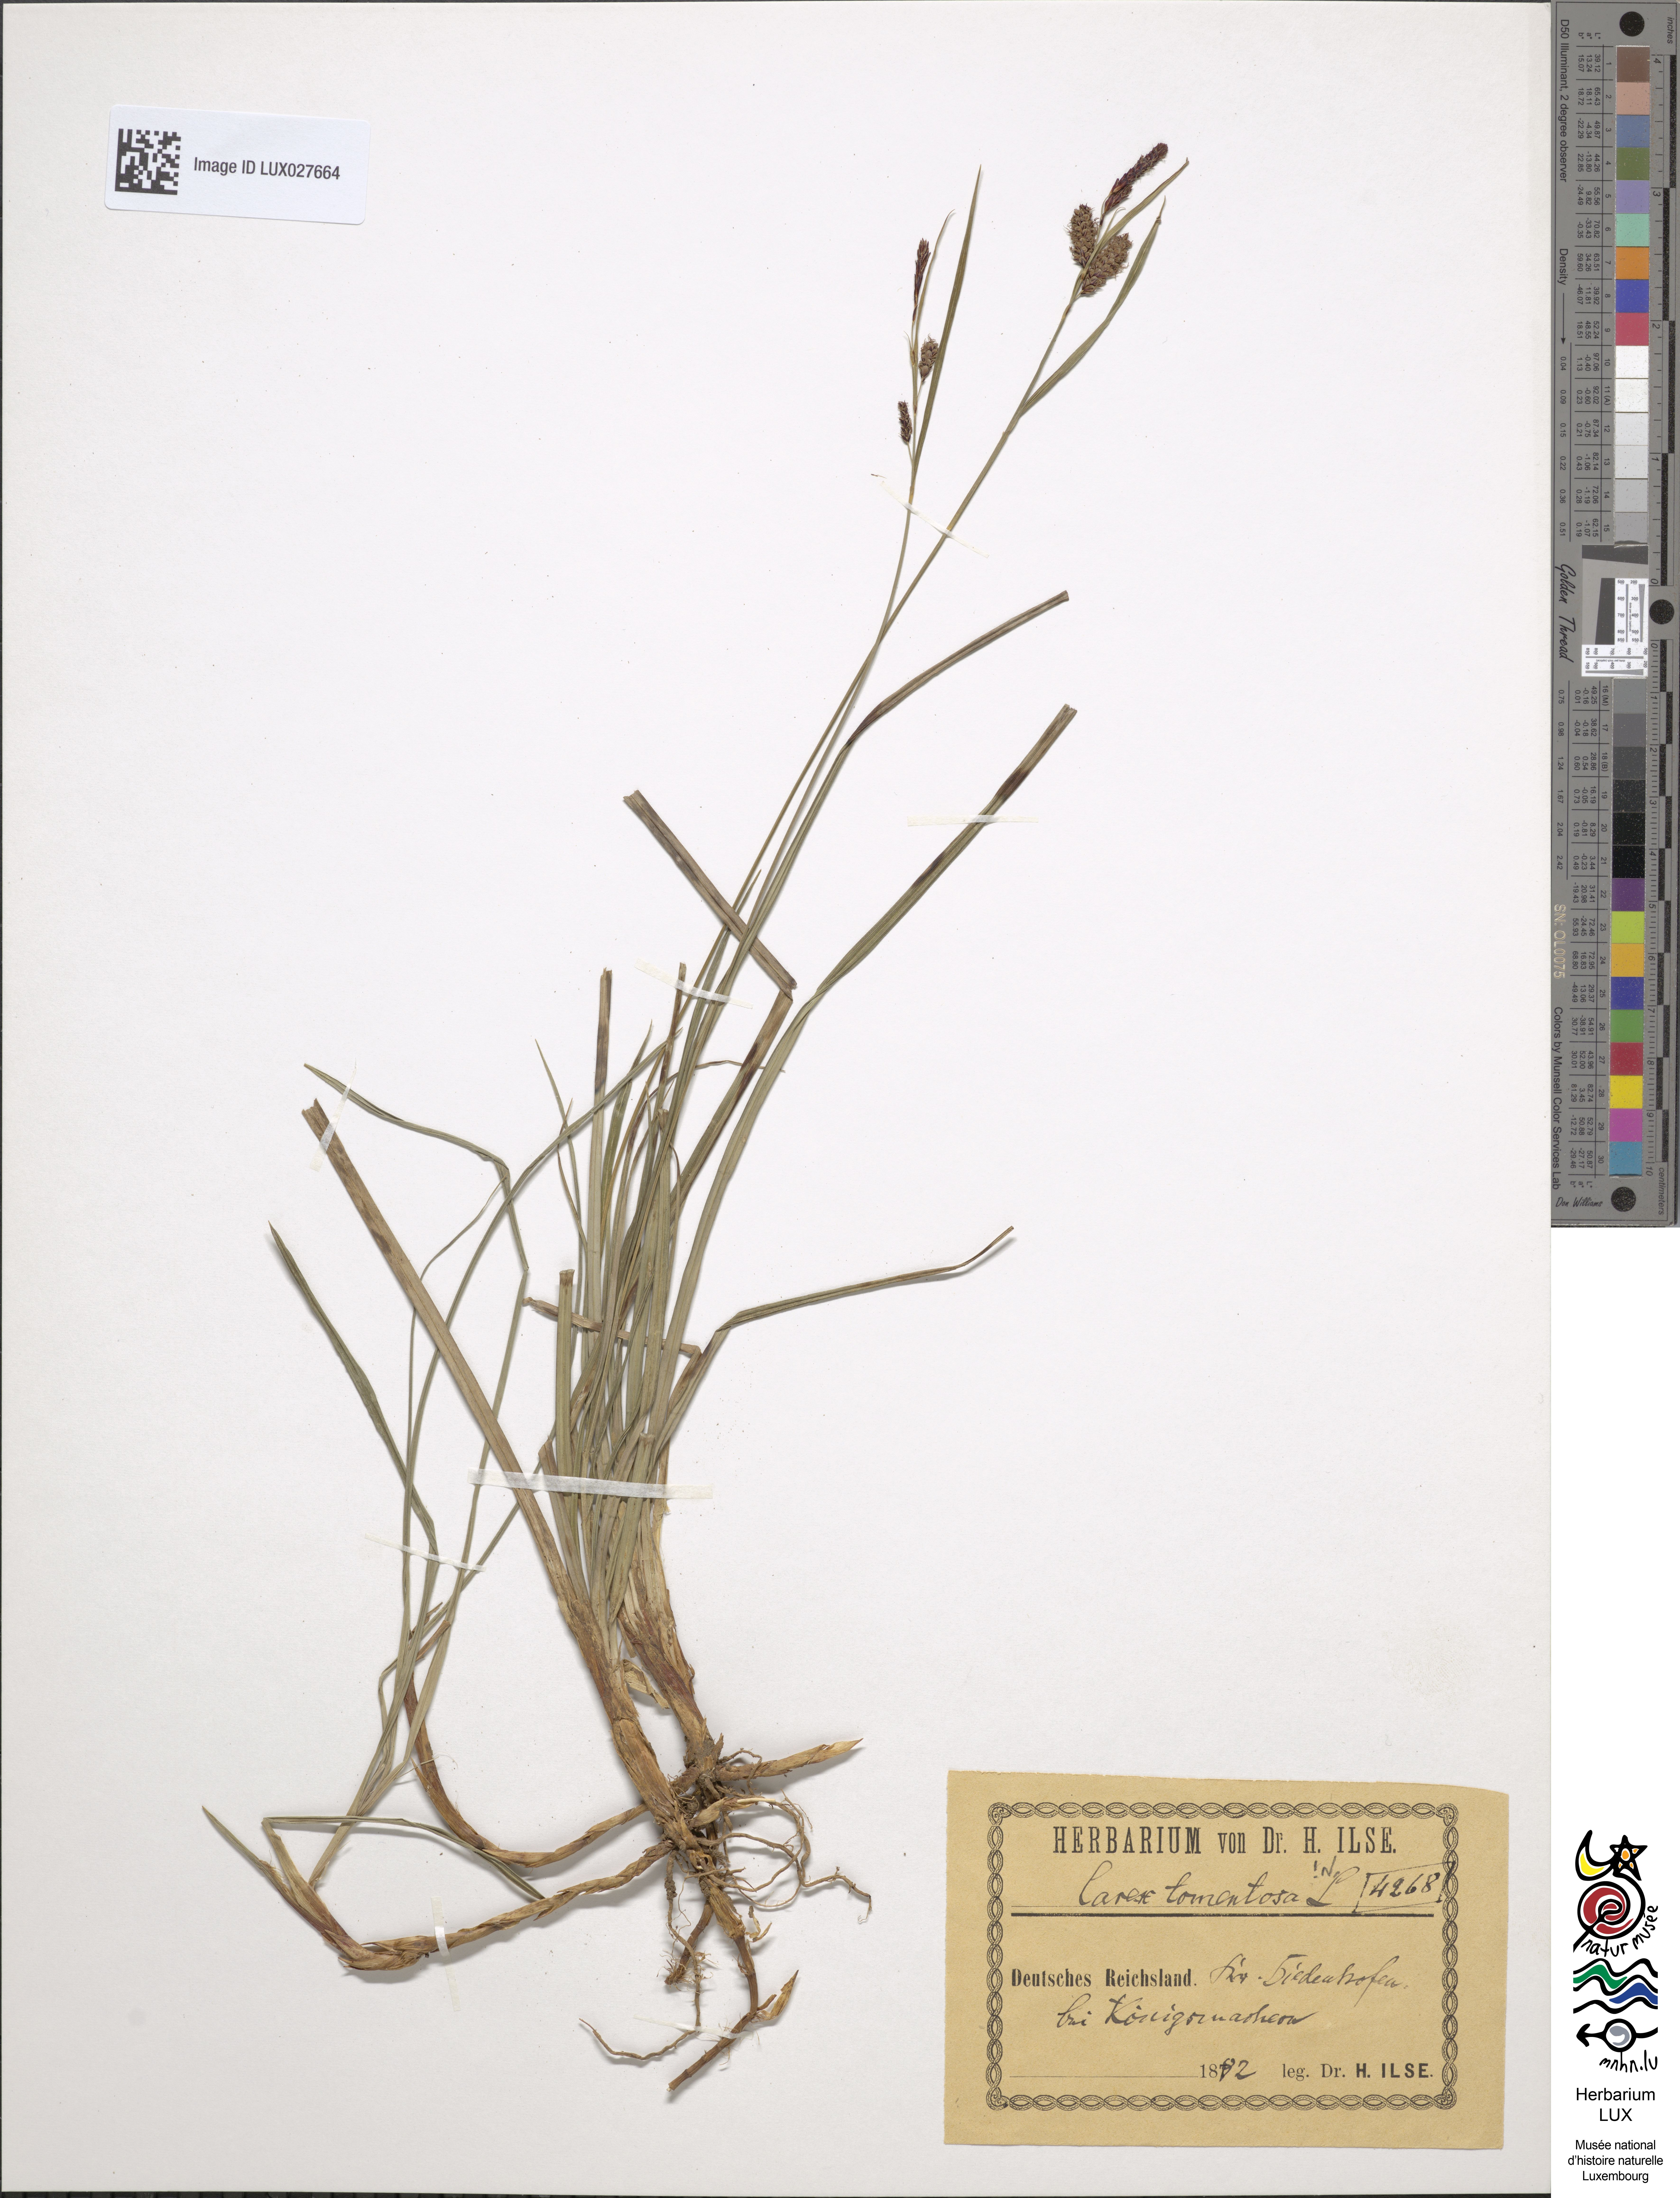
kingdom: Plantae
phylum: Tracheophyta
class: Liliopsida
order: Poales
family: Cyperaceae
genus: Carex
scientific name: Carex tomentosa
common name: Downy-fruited sedge
